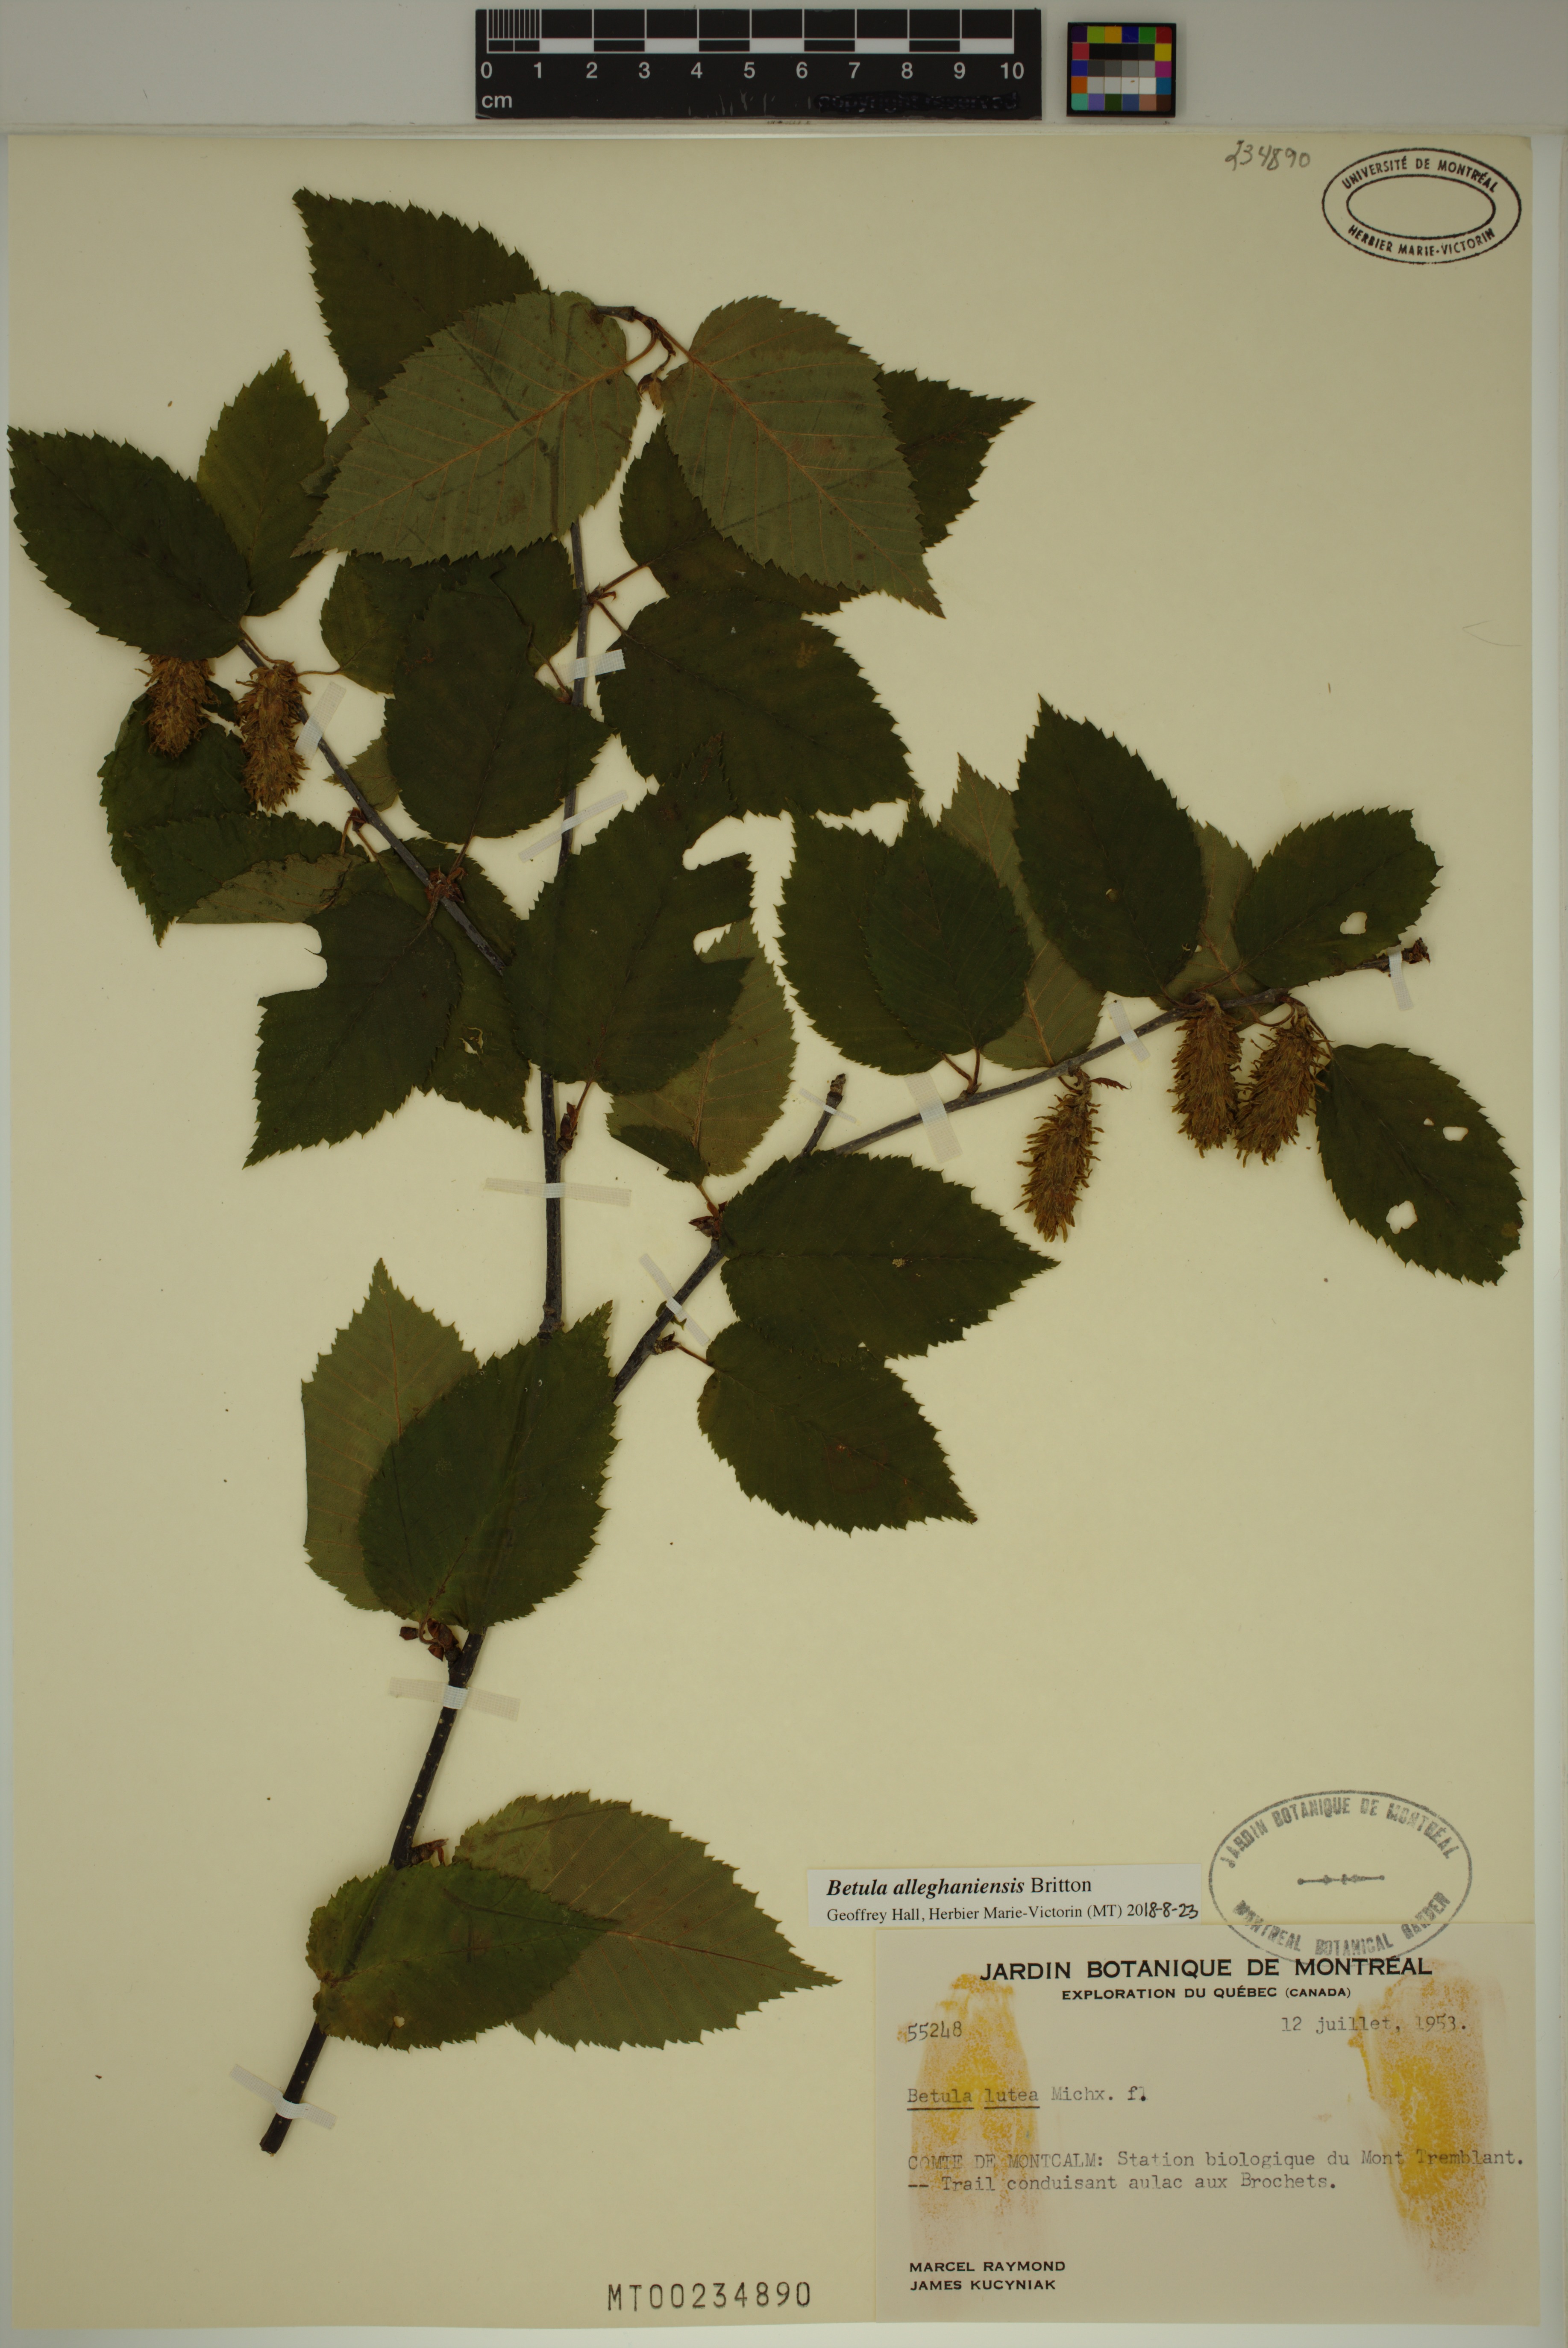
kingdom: Plantae
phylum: Tracheophyta
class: Magnoliopsida
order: Fagales
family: Betulaceae
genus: Betula
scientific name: Betula alleghaniensis
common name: Yellow birch
